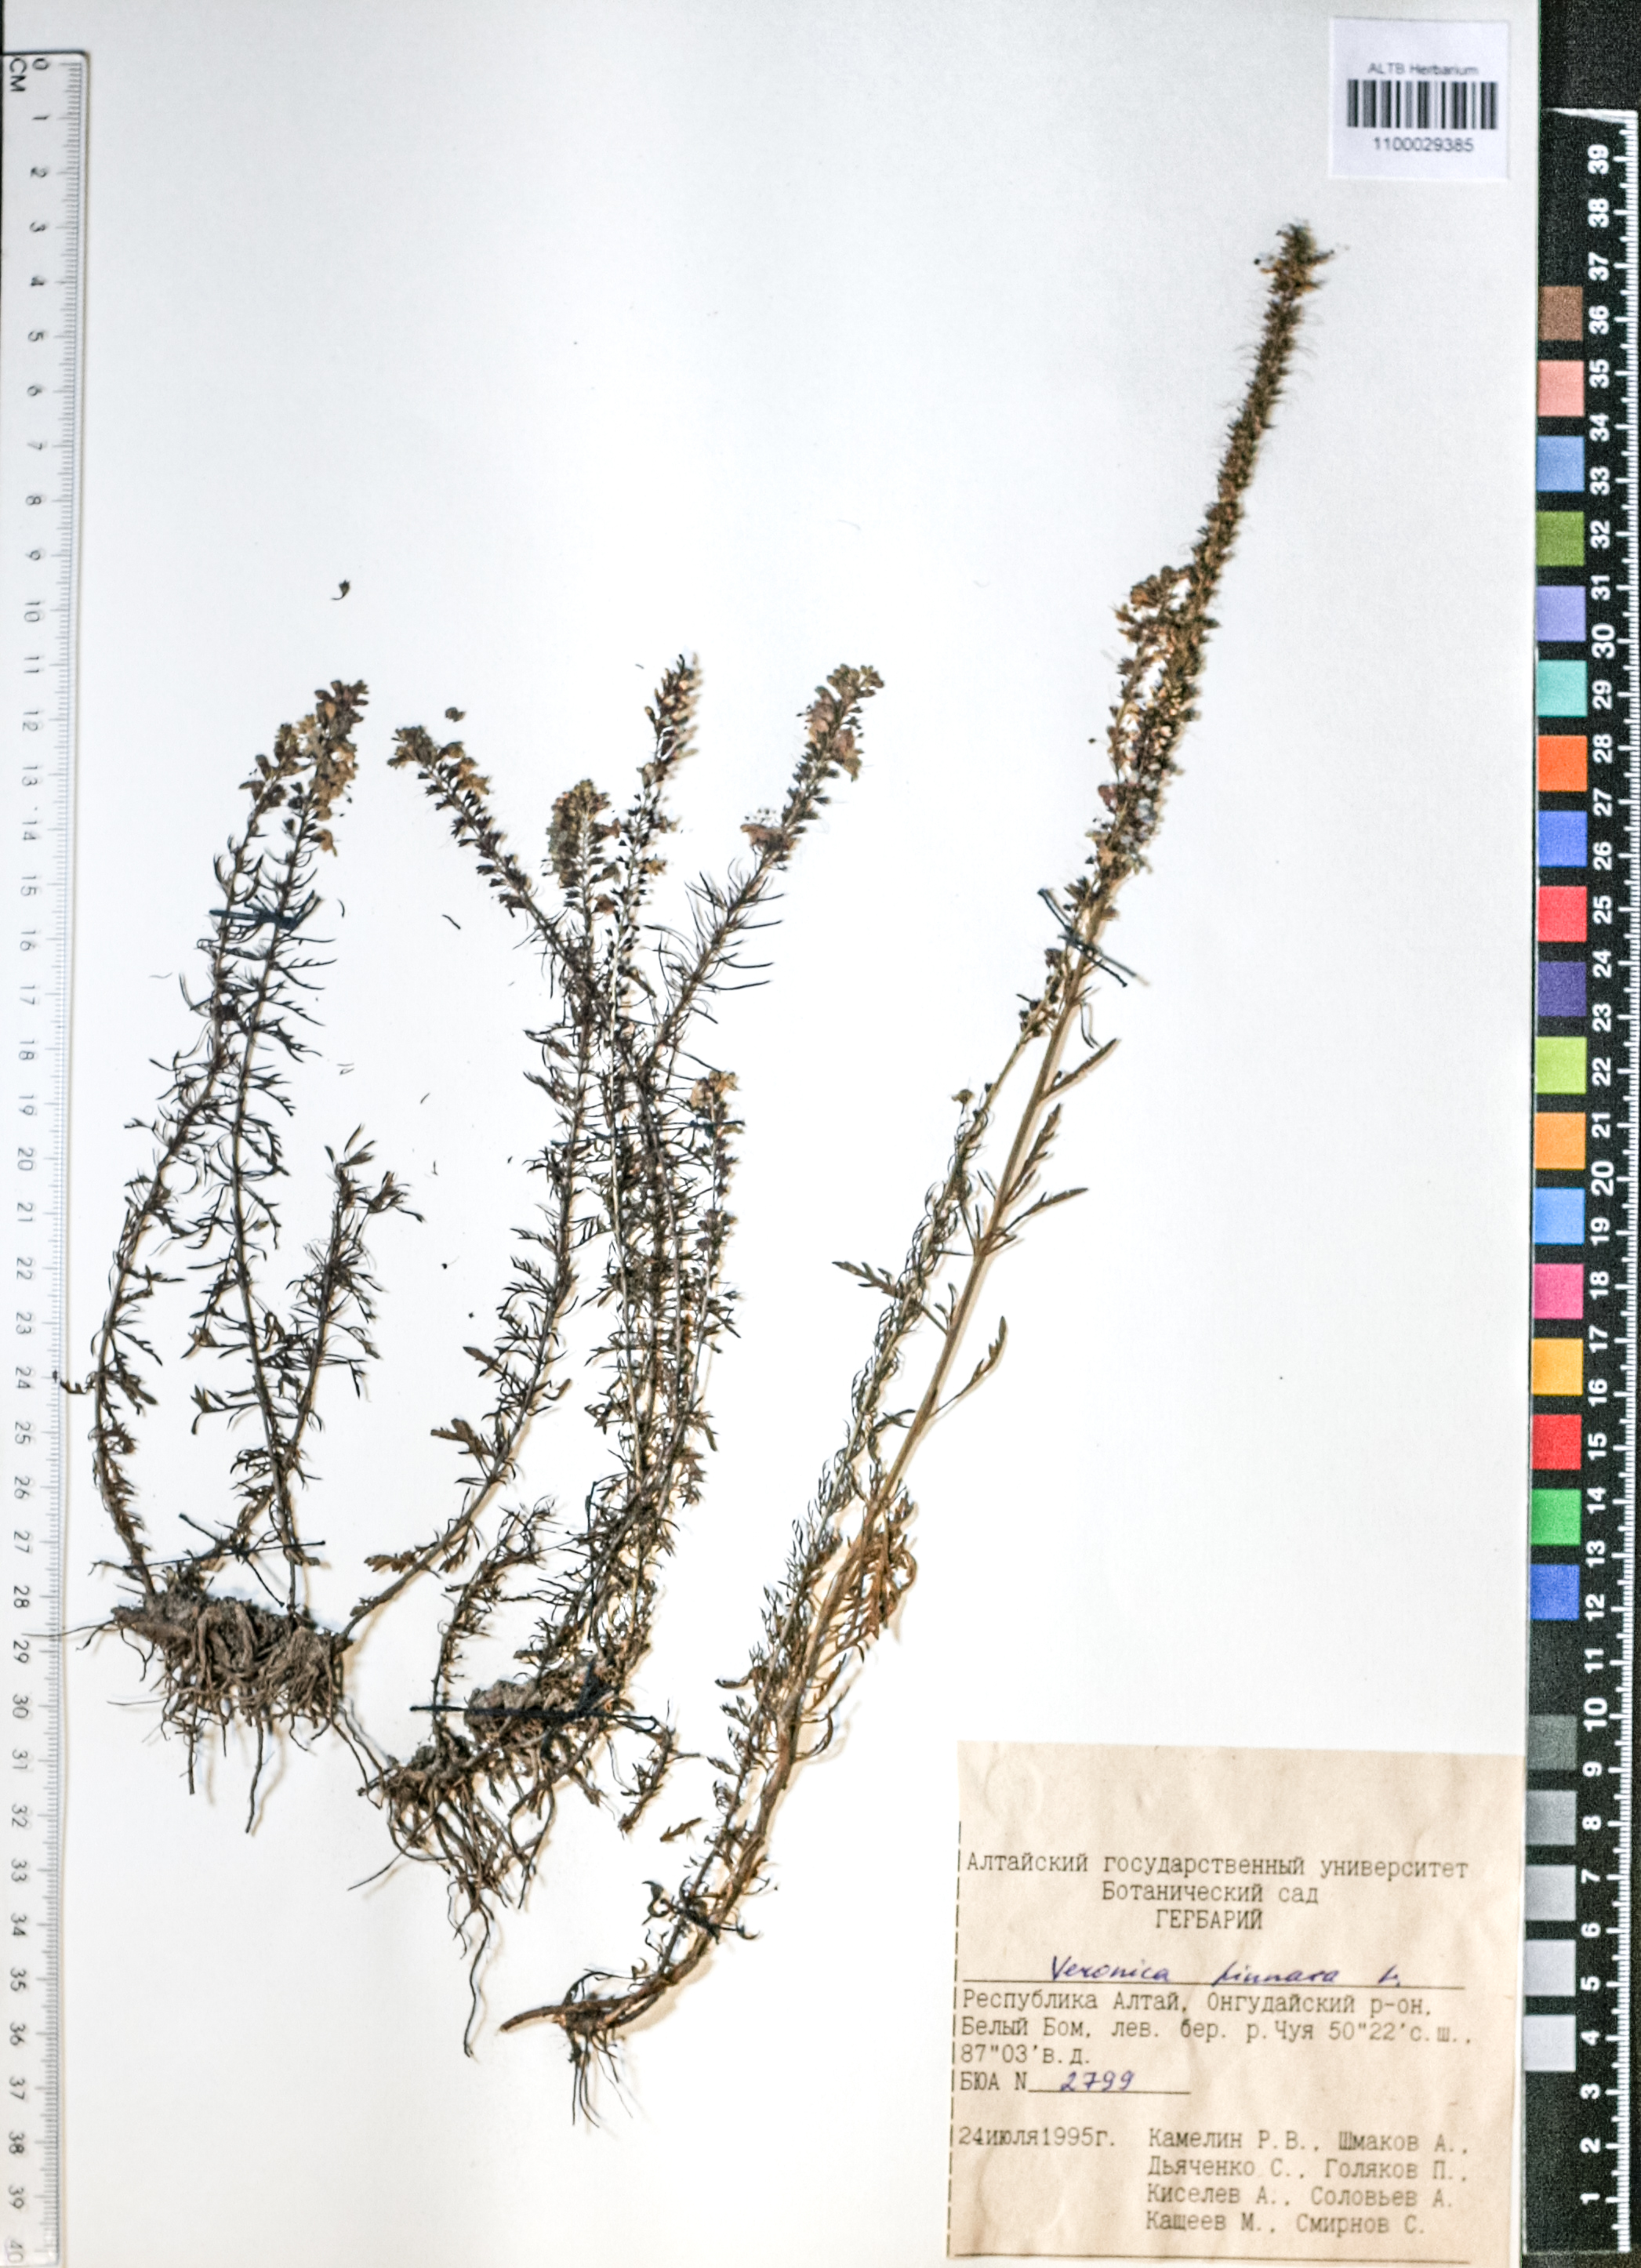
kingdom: Plantae
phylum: Tracheophyta
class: Magnoliopsida
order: Lamiales
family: Plantaginaceae
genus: Veronica
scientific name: Veronica pinnata
